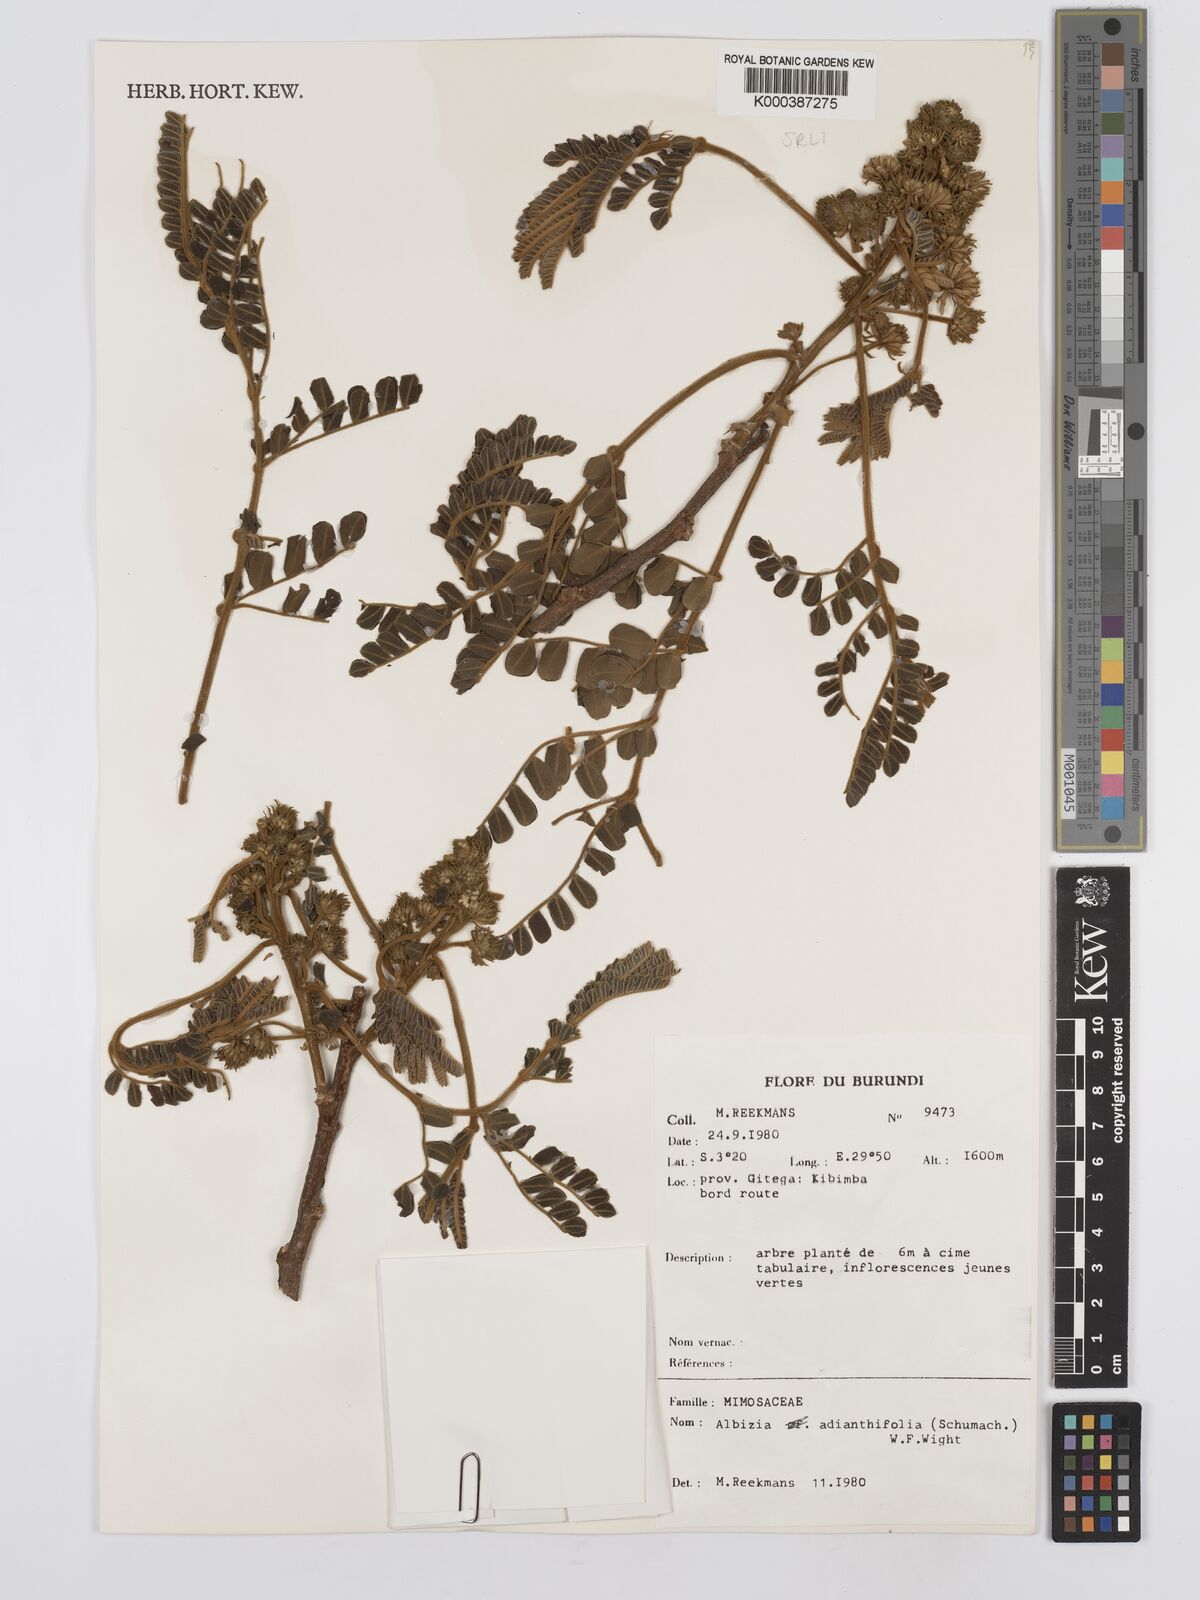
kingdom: Plantae
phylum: Tracheophyta
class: Magnoliopsida
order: Fabales
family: Fabaceae
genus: Albizia
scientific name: Albizia adianthifolia
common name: West african albizia
